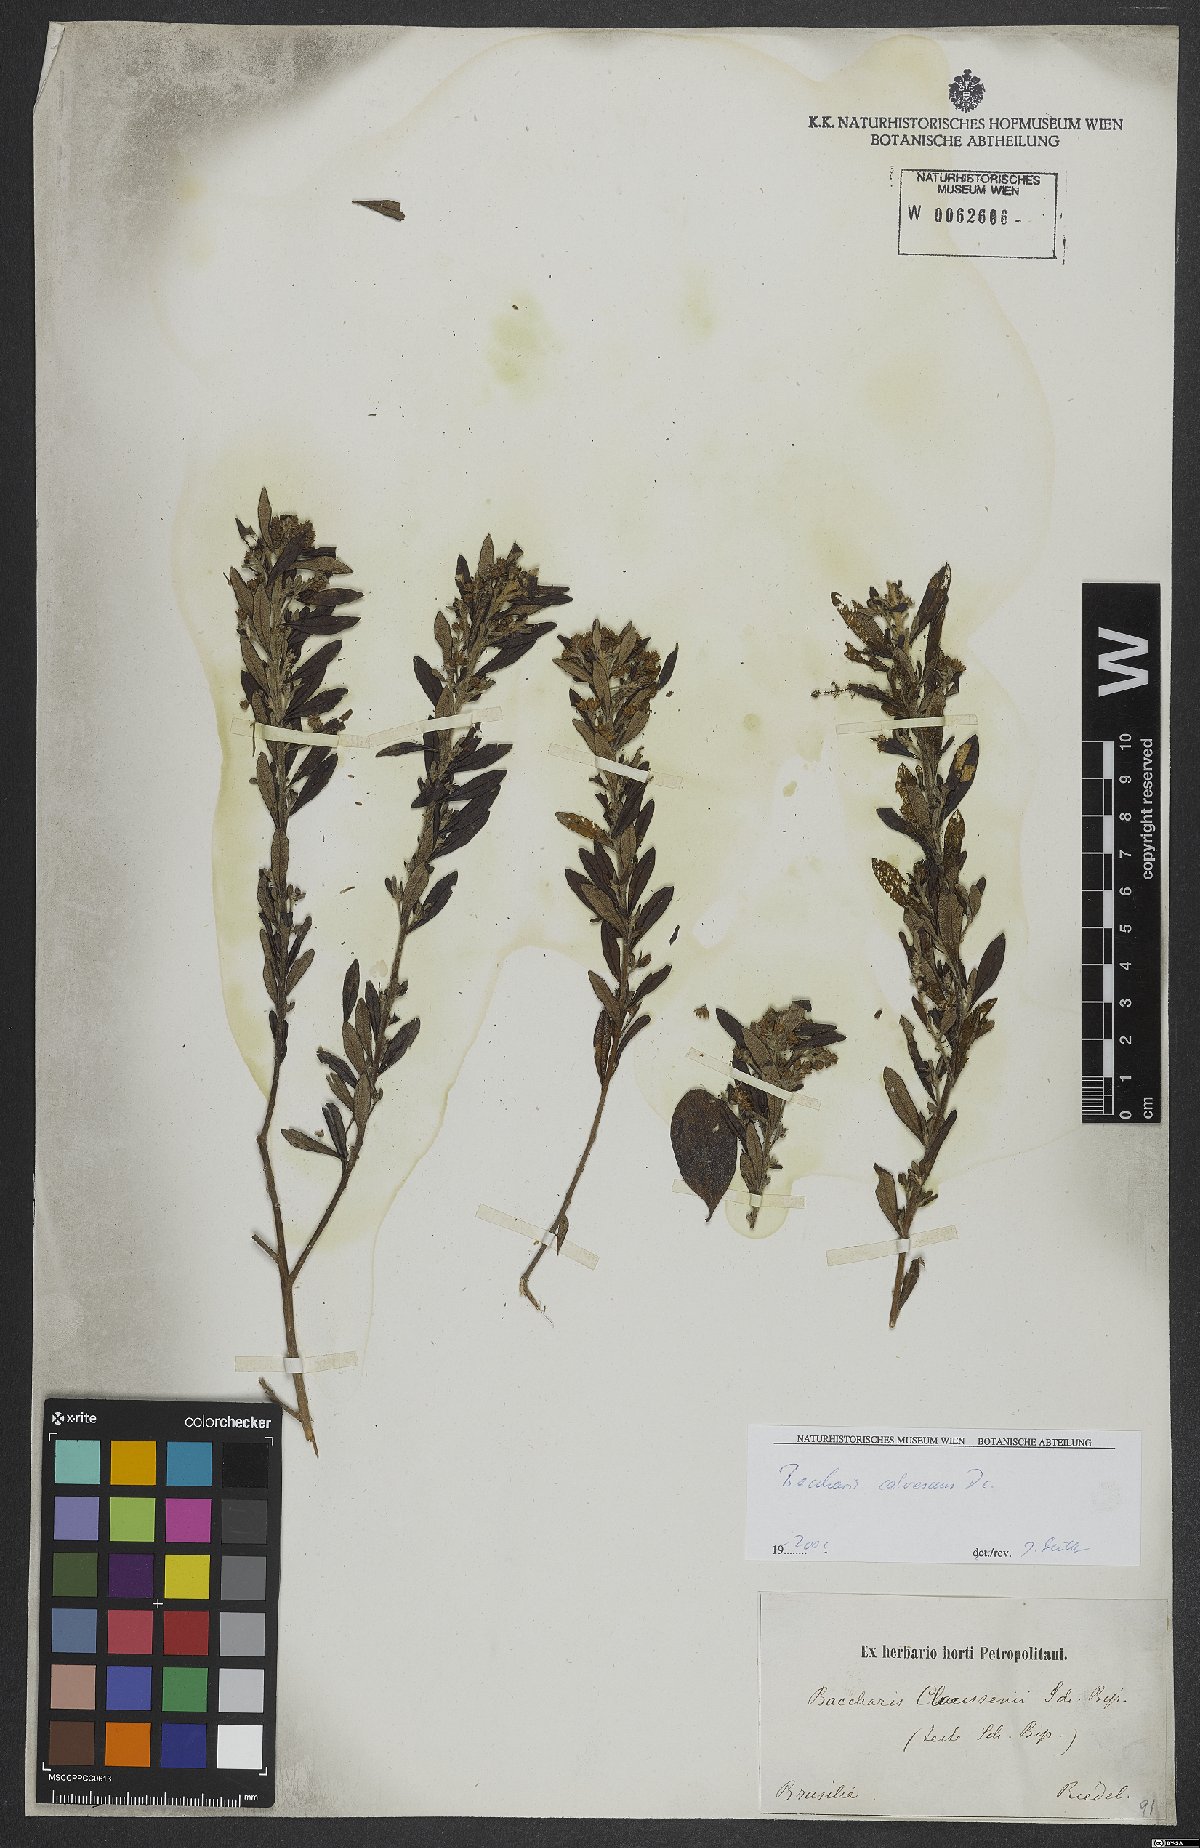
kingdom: Plantae
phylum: Tracheophyta
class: Magnoliopsida
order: Asterales
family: Asteraceae
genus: Baccharis
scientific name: Baccharis calvescens
